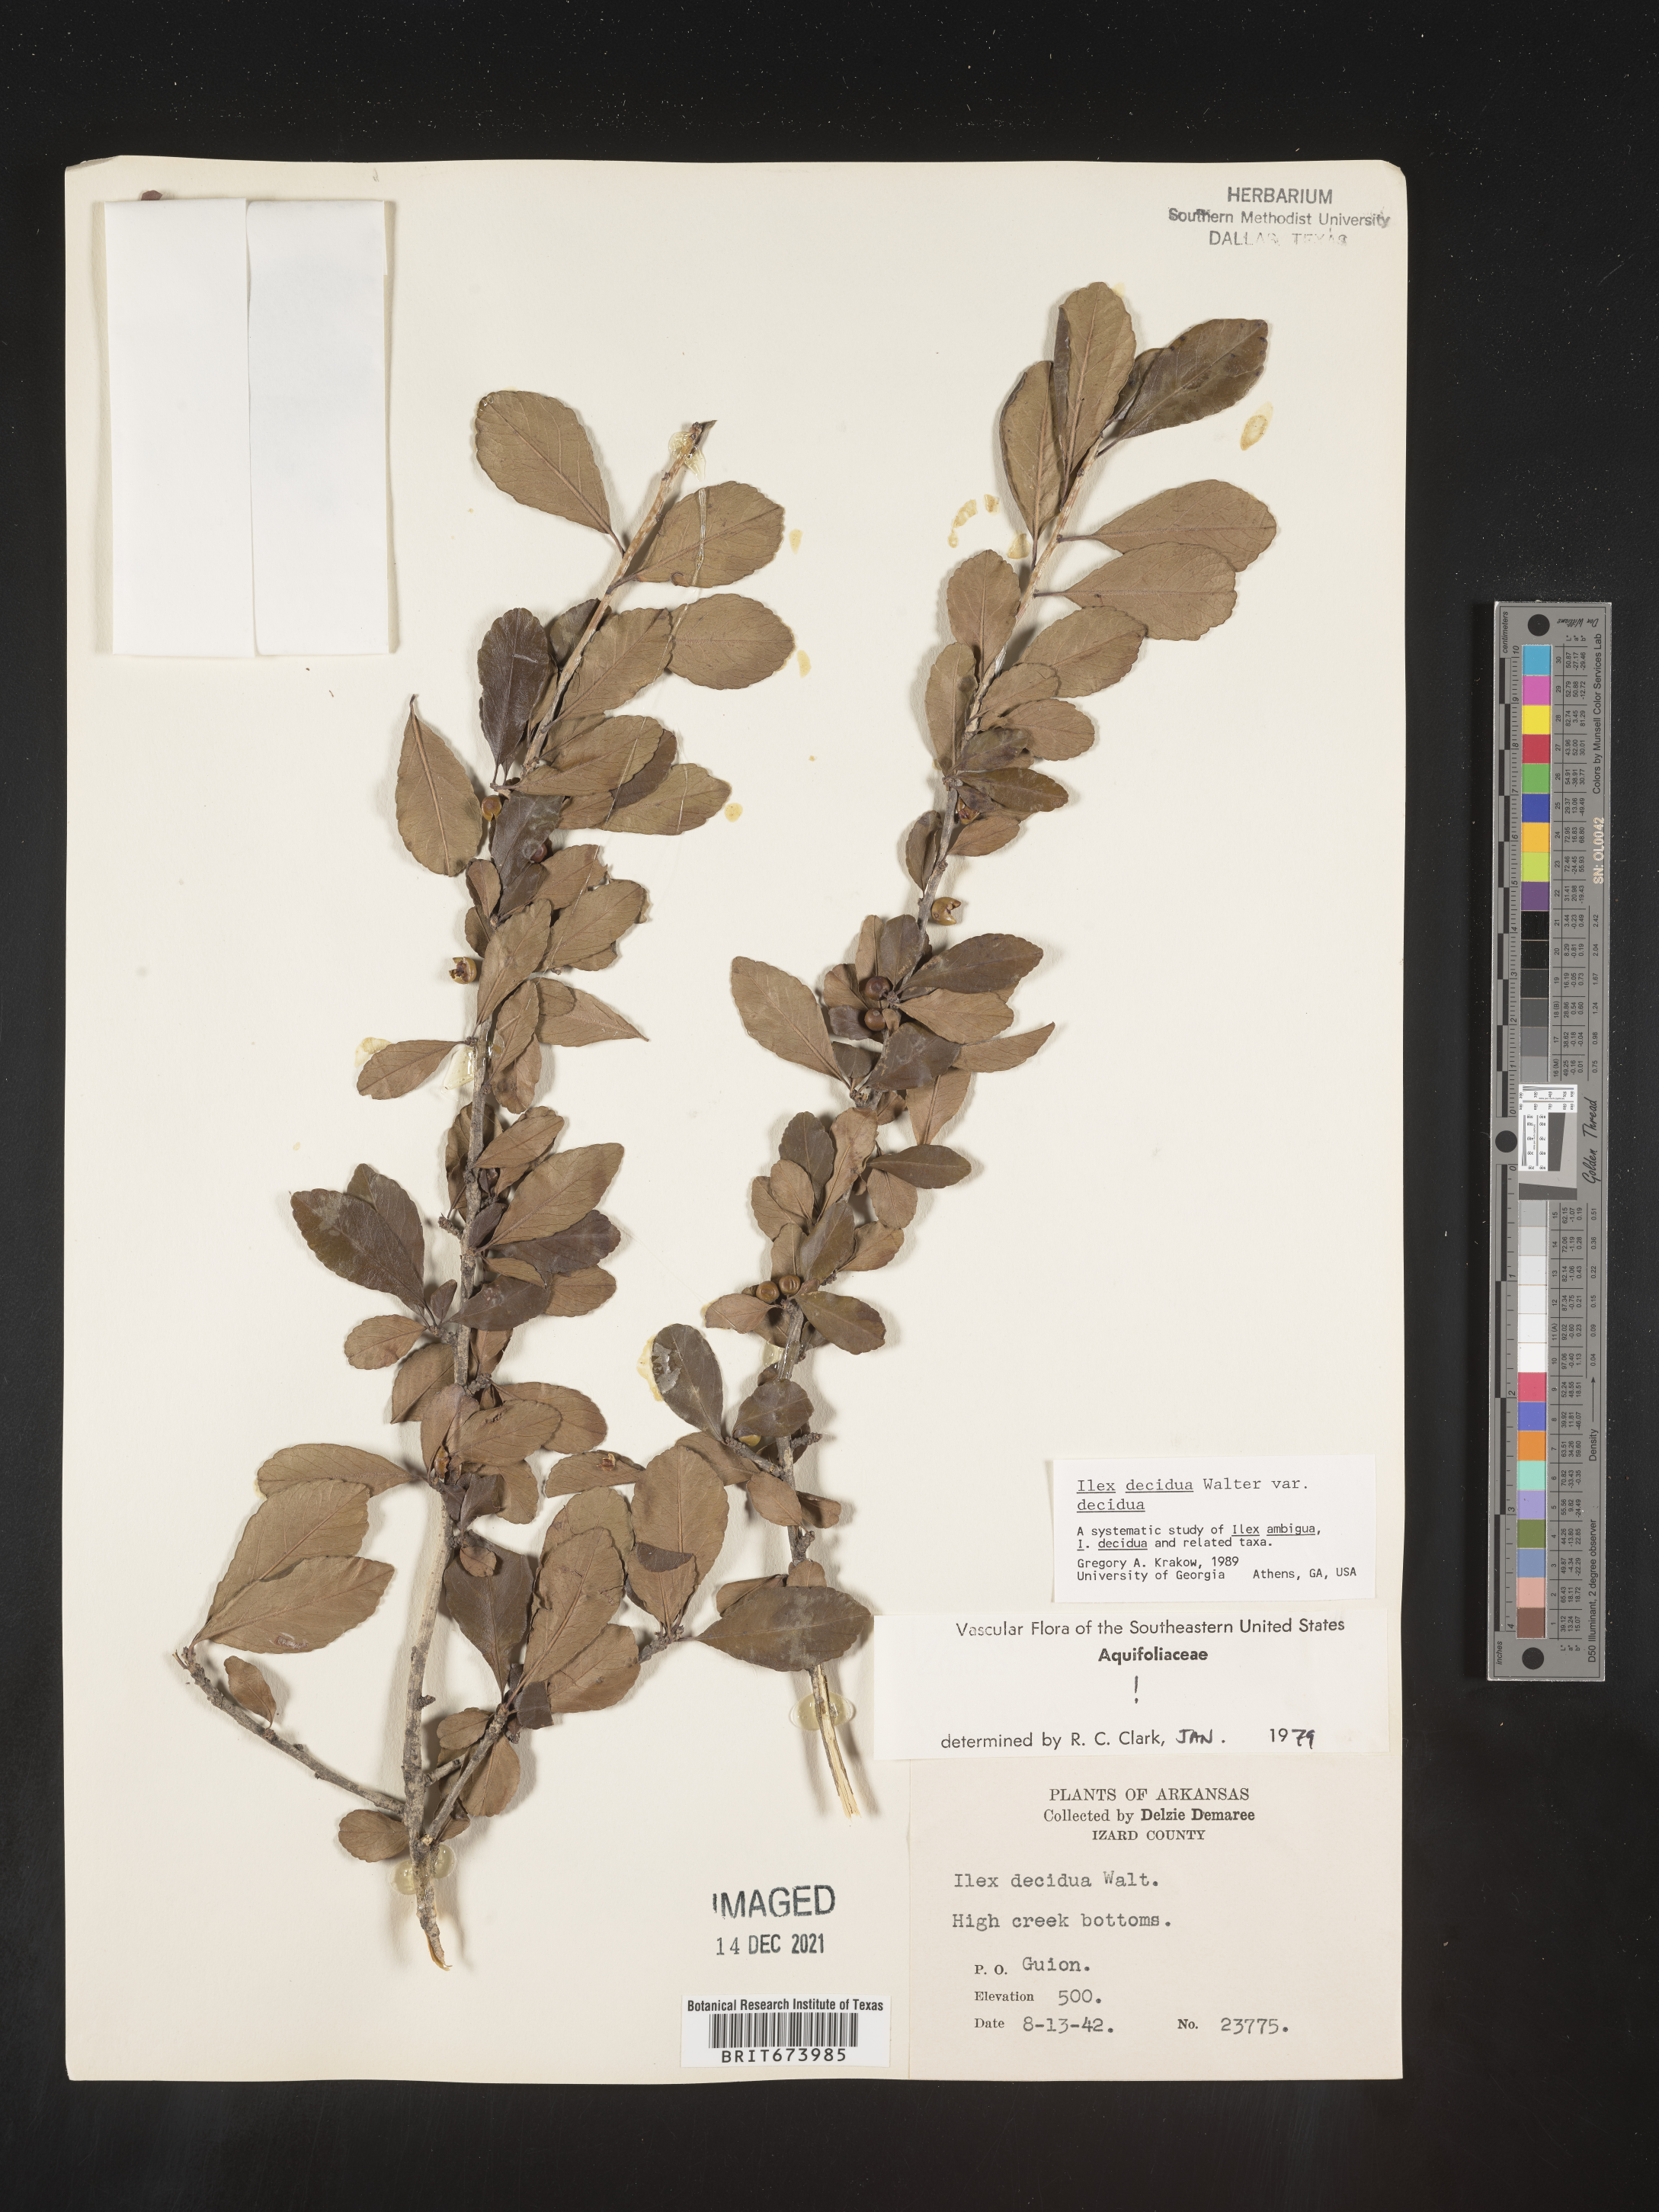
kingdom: Plantae
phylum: Tracheophyta
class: Magnoliopsida
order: Aquifoliales
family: Aquifoliaceae
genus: Ilex
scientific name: Ilex decidua
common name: Possum-haw
